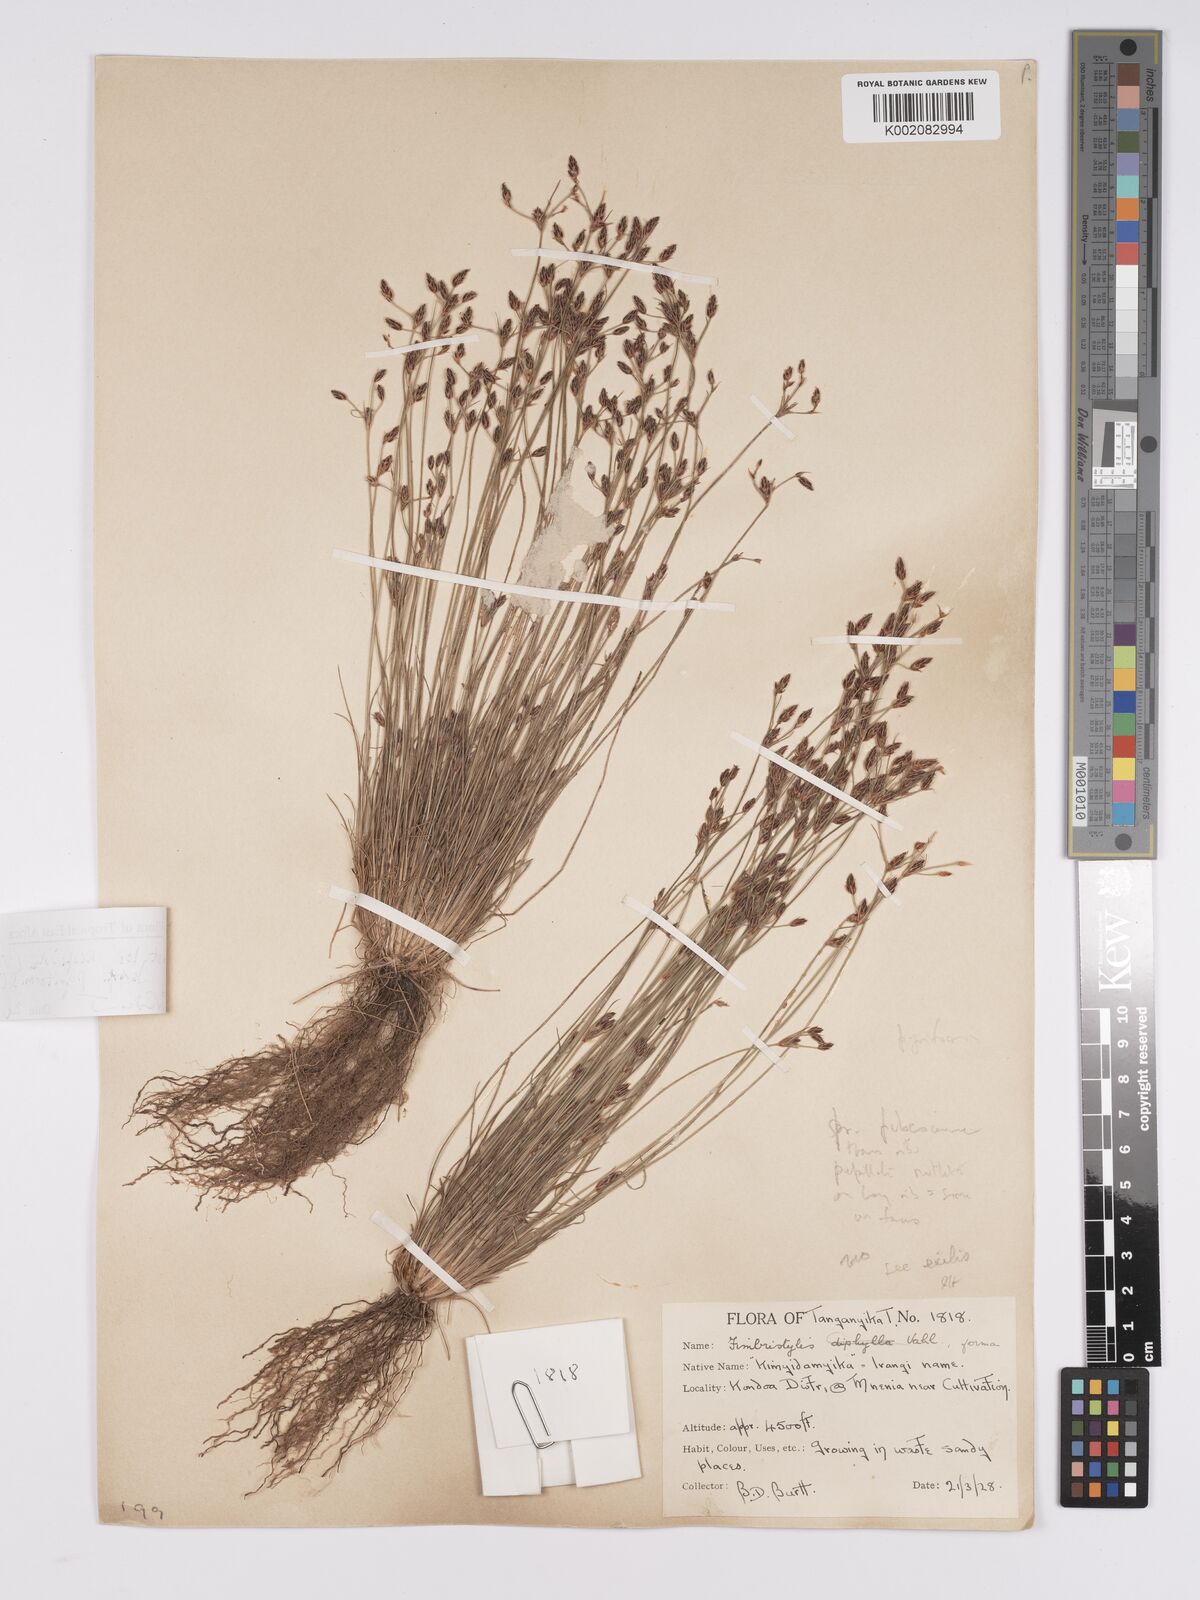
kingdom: Plantae
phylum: Tracheophyta
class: Liliopsida
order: Poales
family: Cyperaceae
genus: Bulbostylis
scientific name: Bulbostylis hispidula
